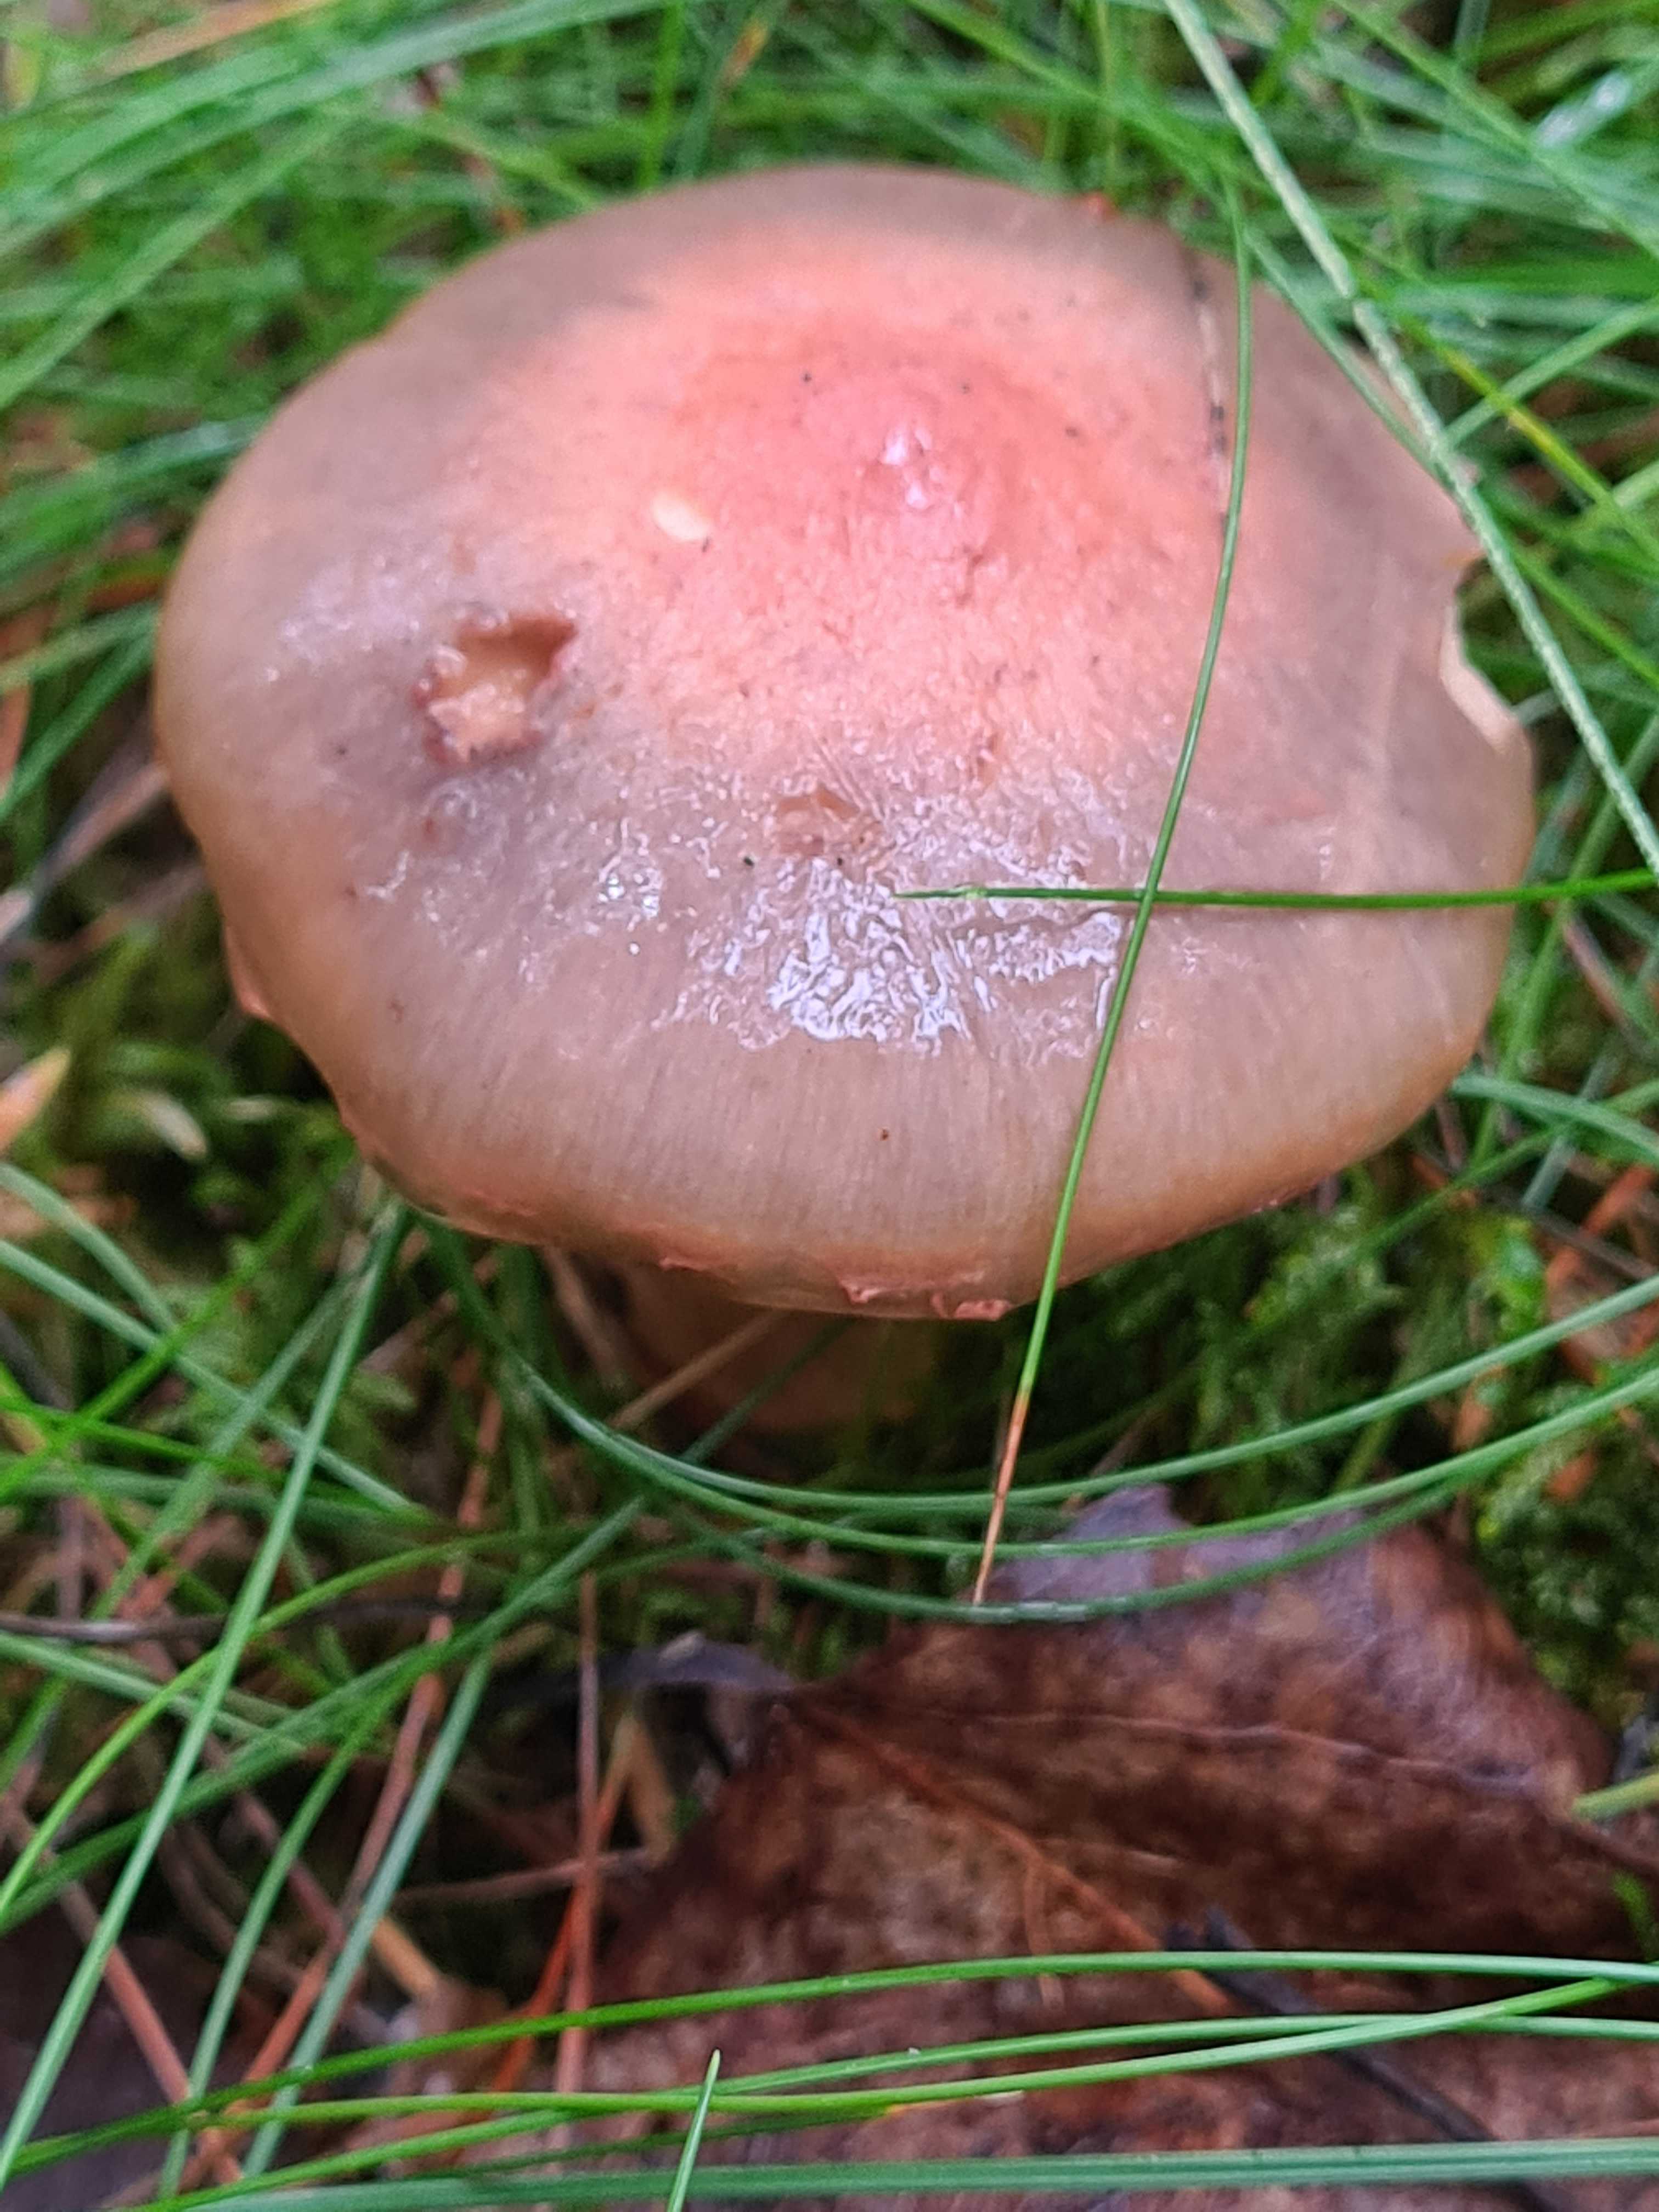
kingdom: Fungi
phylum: Basidiomycota
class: Agaricomycetes
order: Boletales
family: Gomphidiaceae
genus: Chroogomphus
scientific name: Chroogomphus rutilus
